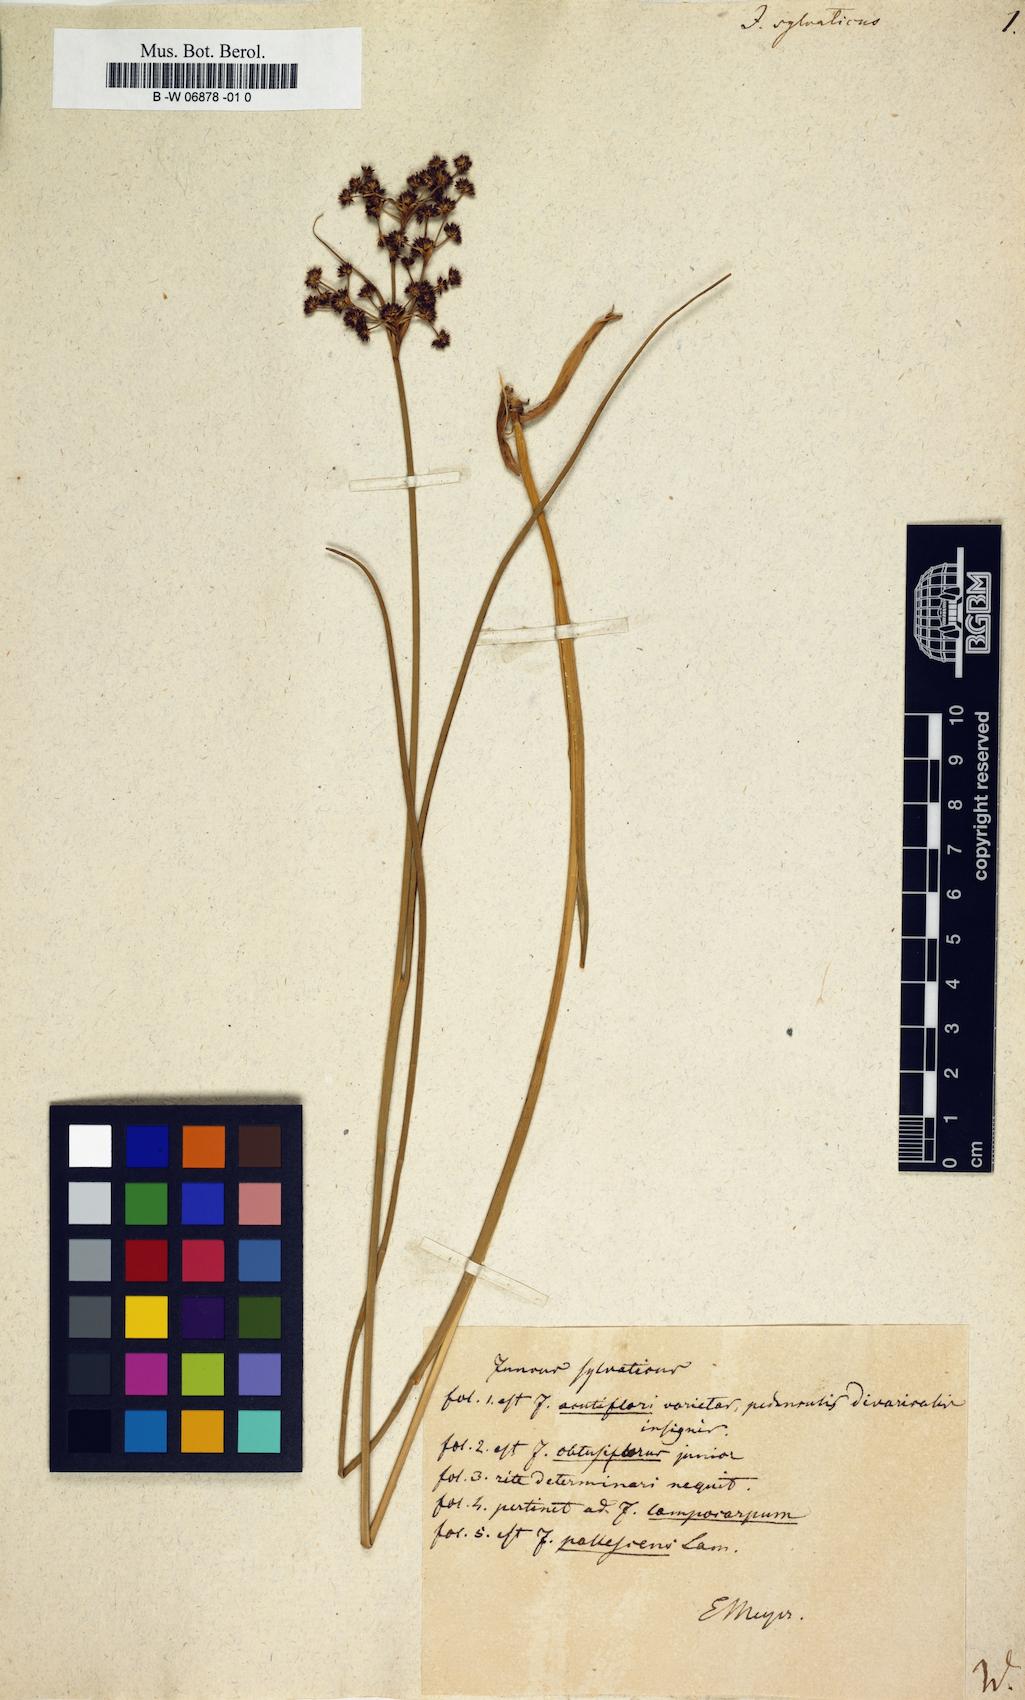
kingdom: Plantae
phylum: Tracheophyta
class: Liliopsida
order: Poales
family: Juncaceae
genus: Juncus
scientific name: Juncus sylvaticus
